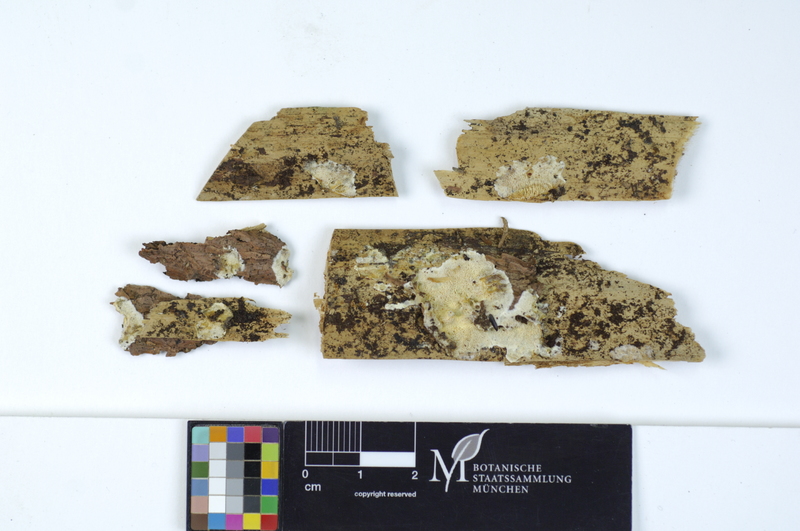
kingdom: Fungi
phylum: Basidiomycota
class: Agaricomycetes
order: Polyporales
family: Incrustoporiaceae
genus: Skeletocutis
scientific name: Skeletocutis carneogrisea
